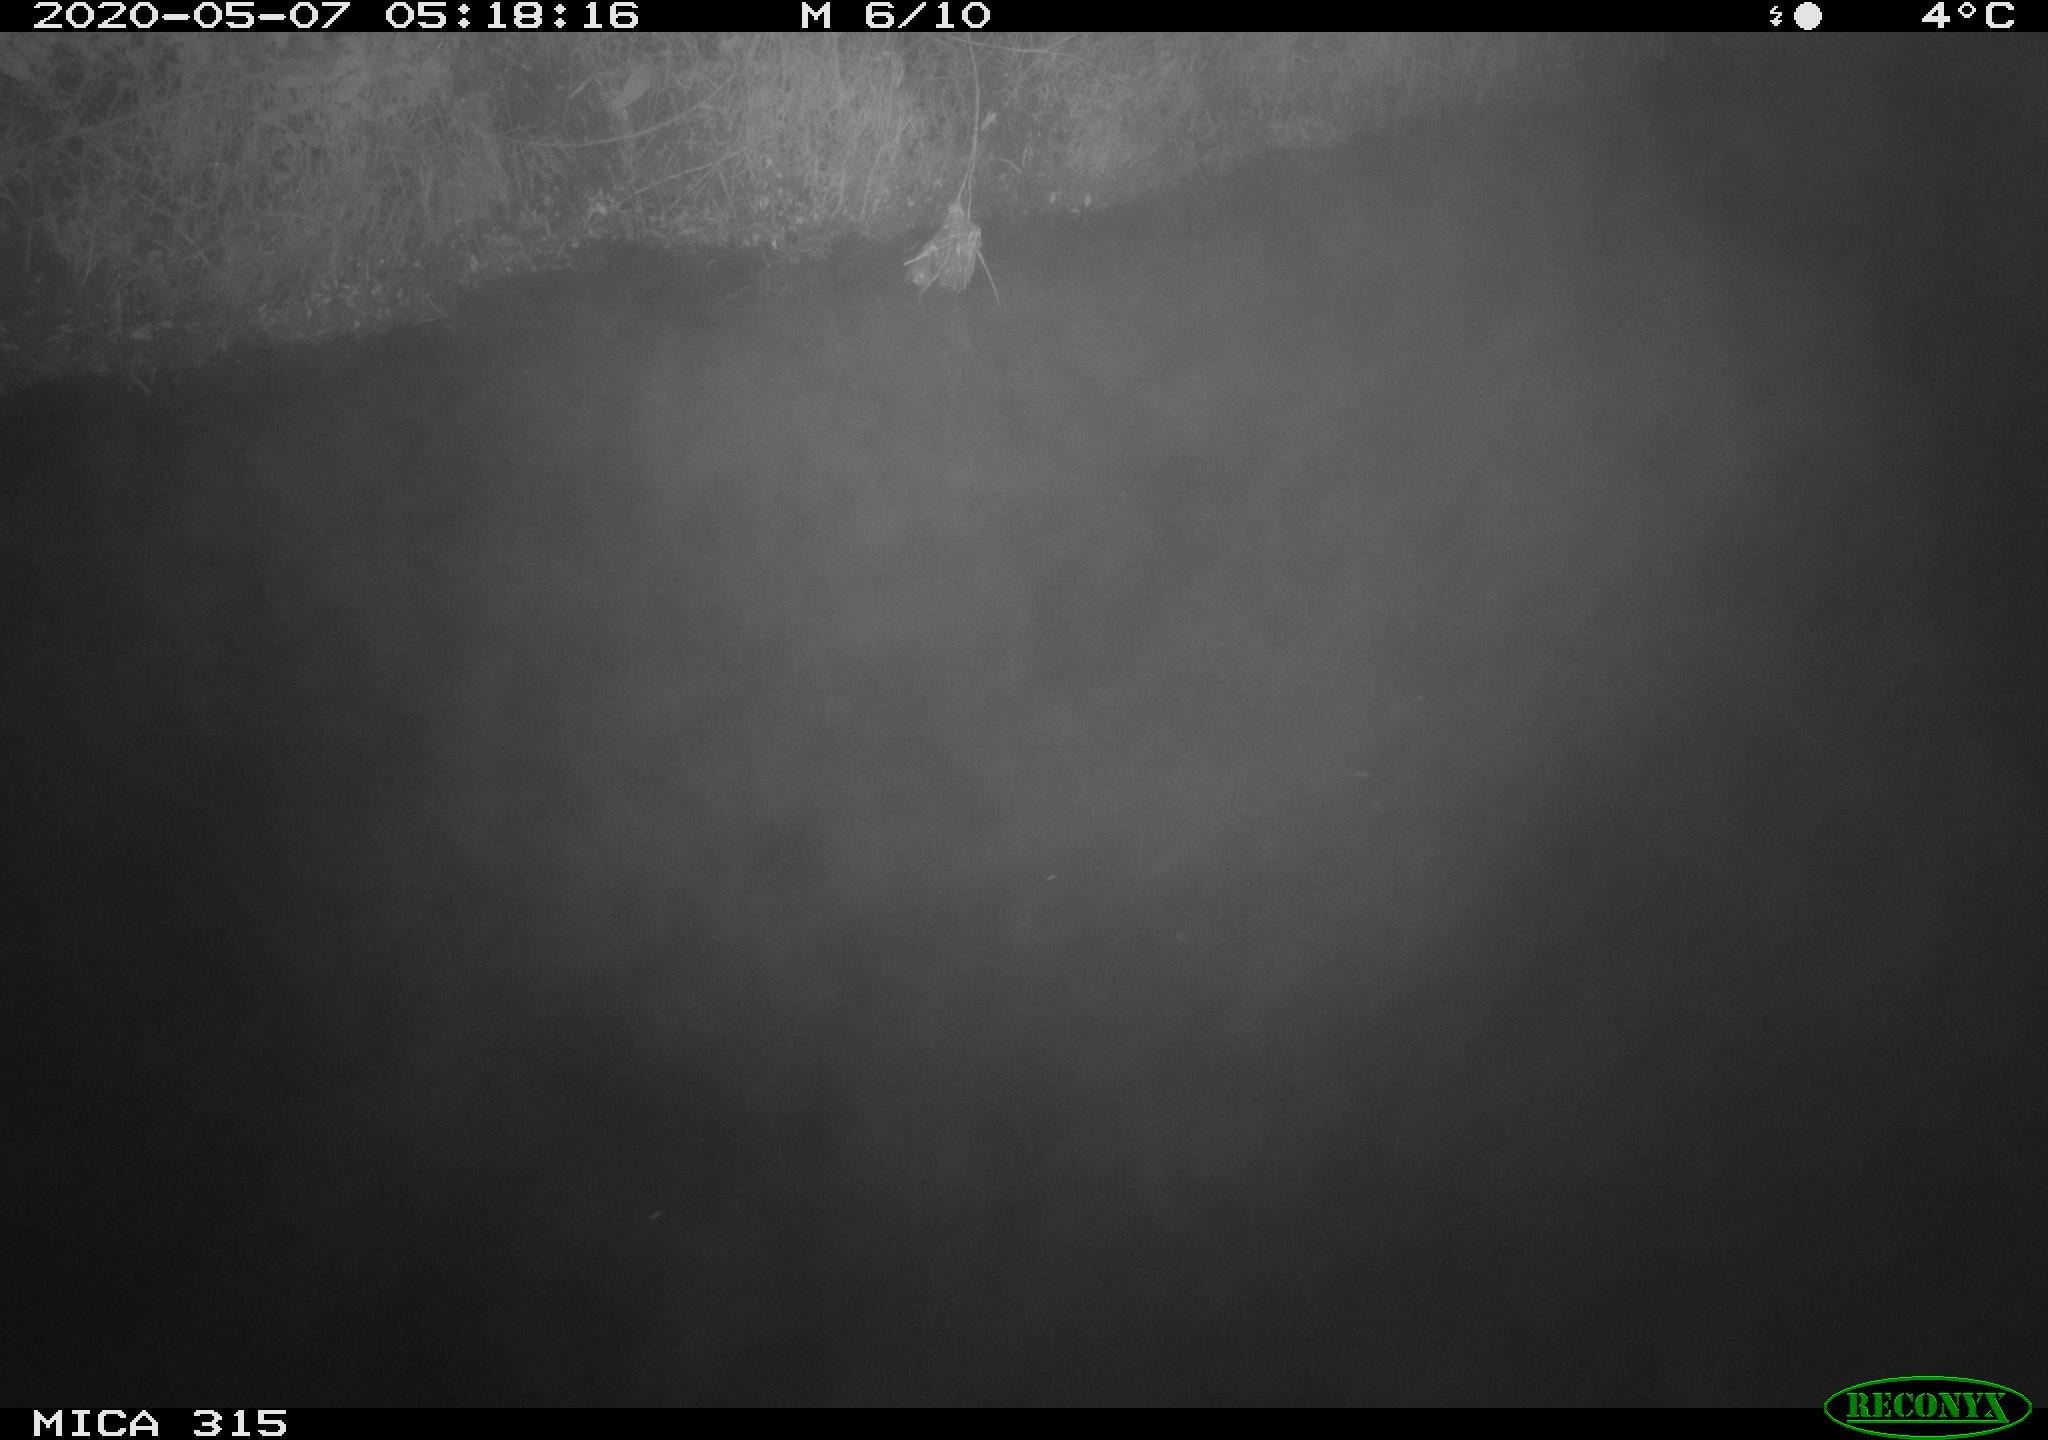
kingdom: Animalia
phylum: Chordata
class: Aves
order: Gruiformes
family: Rallidae
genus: Gallinula
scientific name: Gallinula chloropus
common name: Common moorhen
